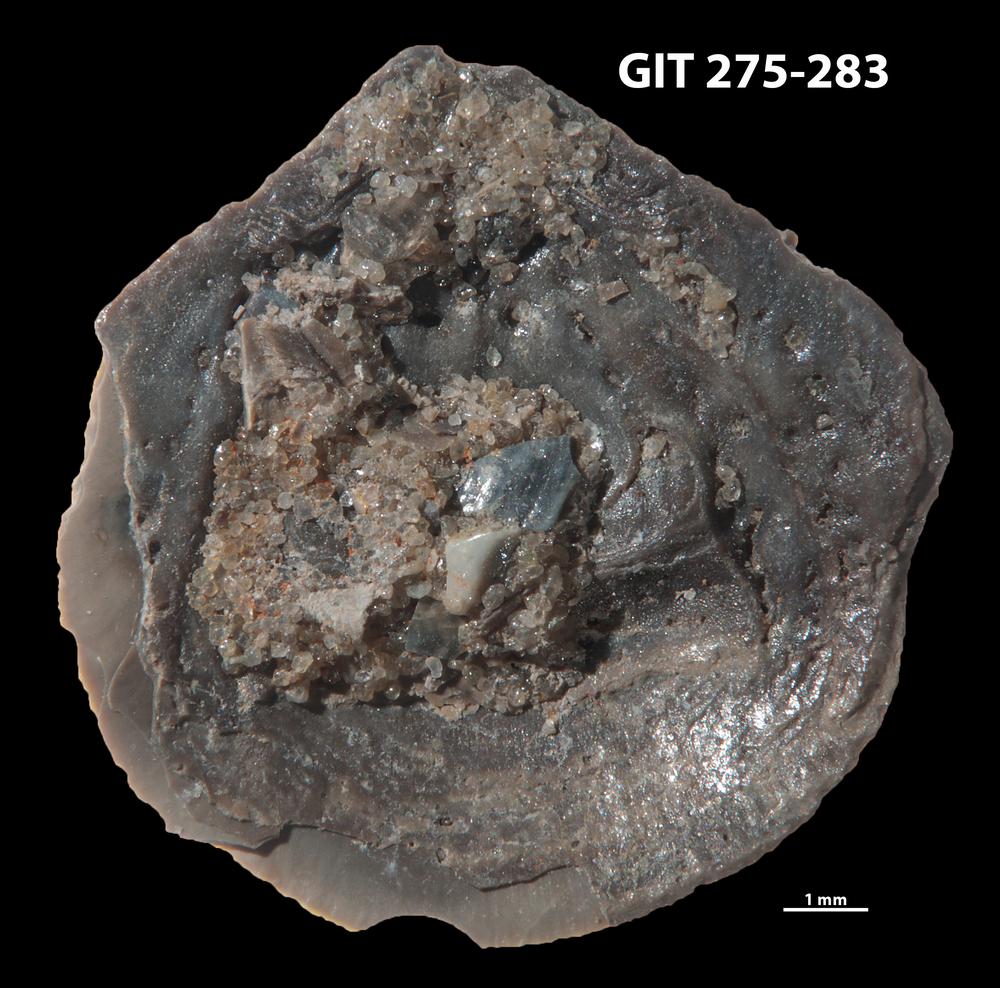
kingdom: Animalia
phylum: Brachiopoda
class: Lingulata
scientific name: Lingulata
